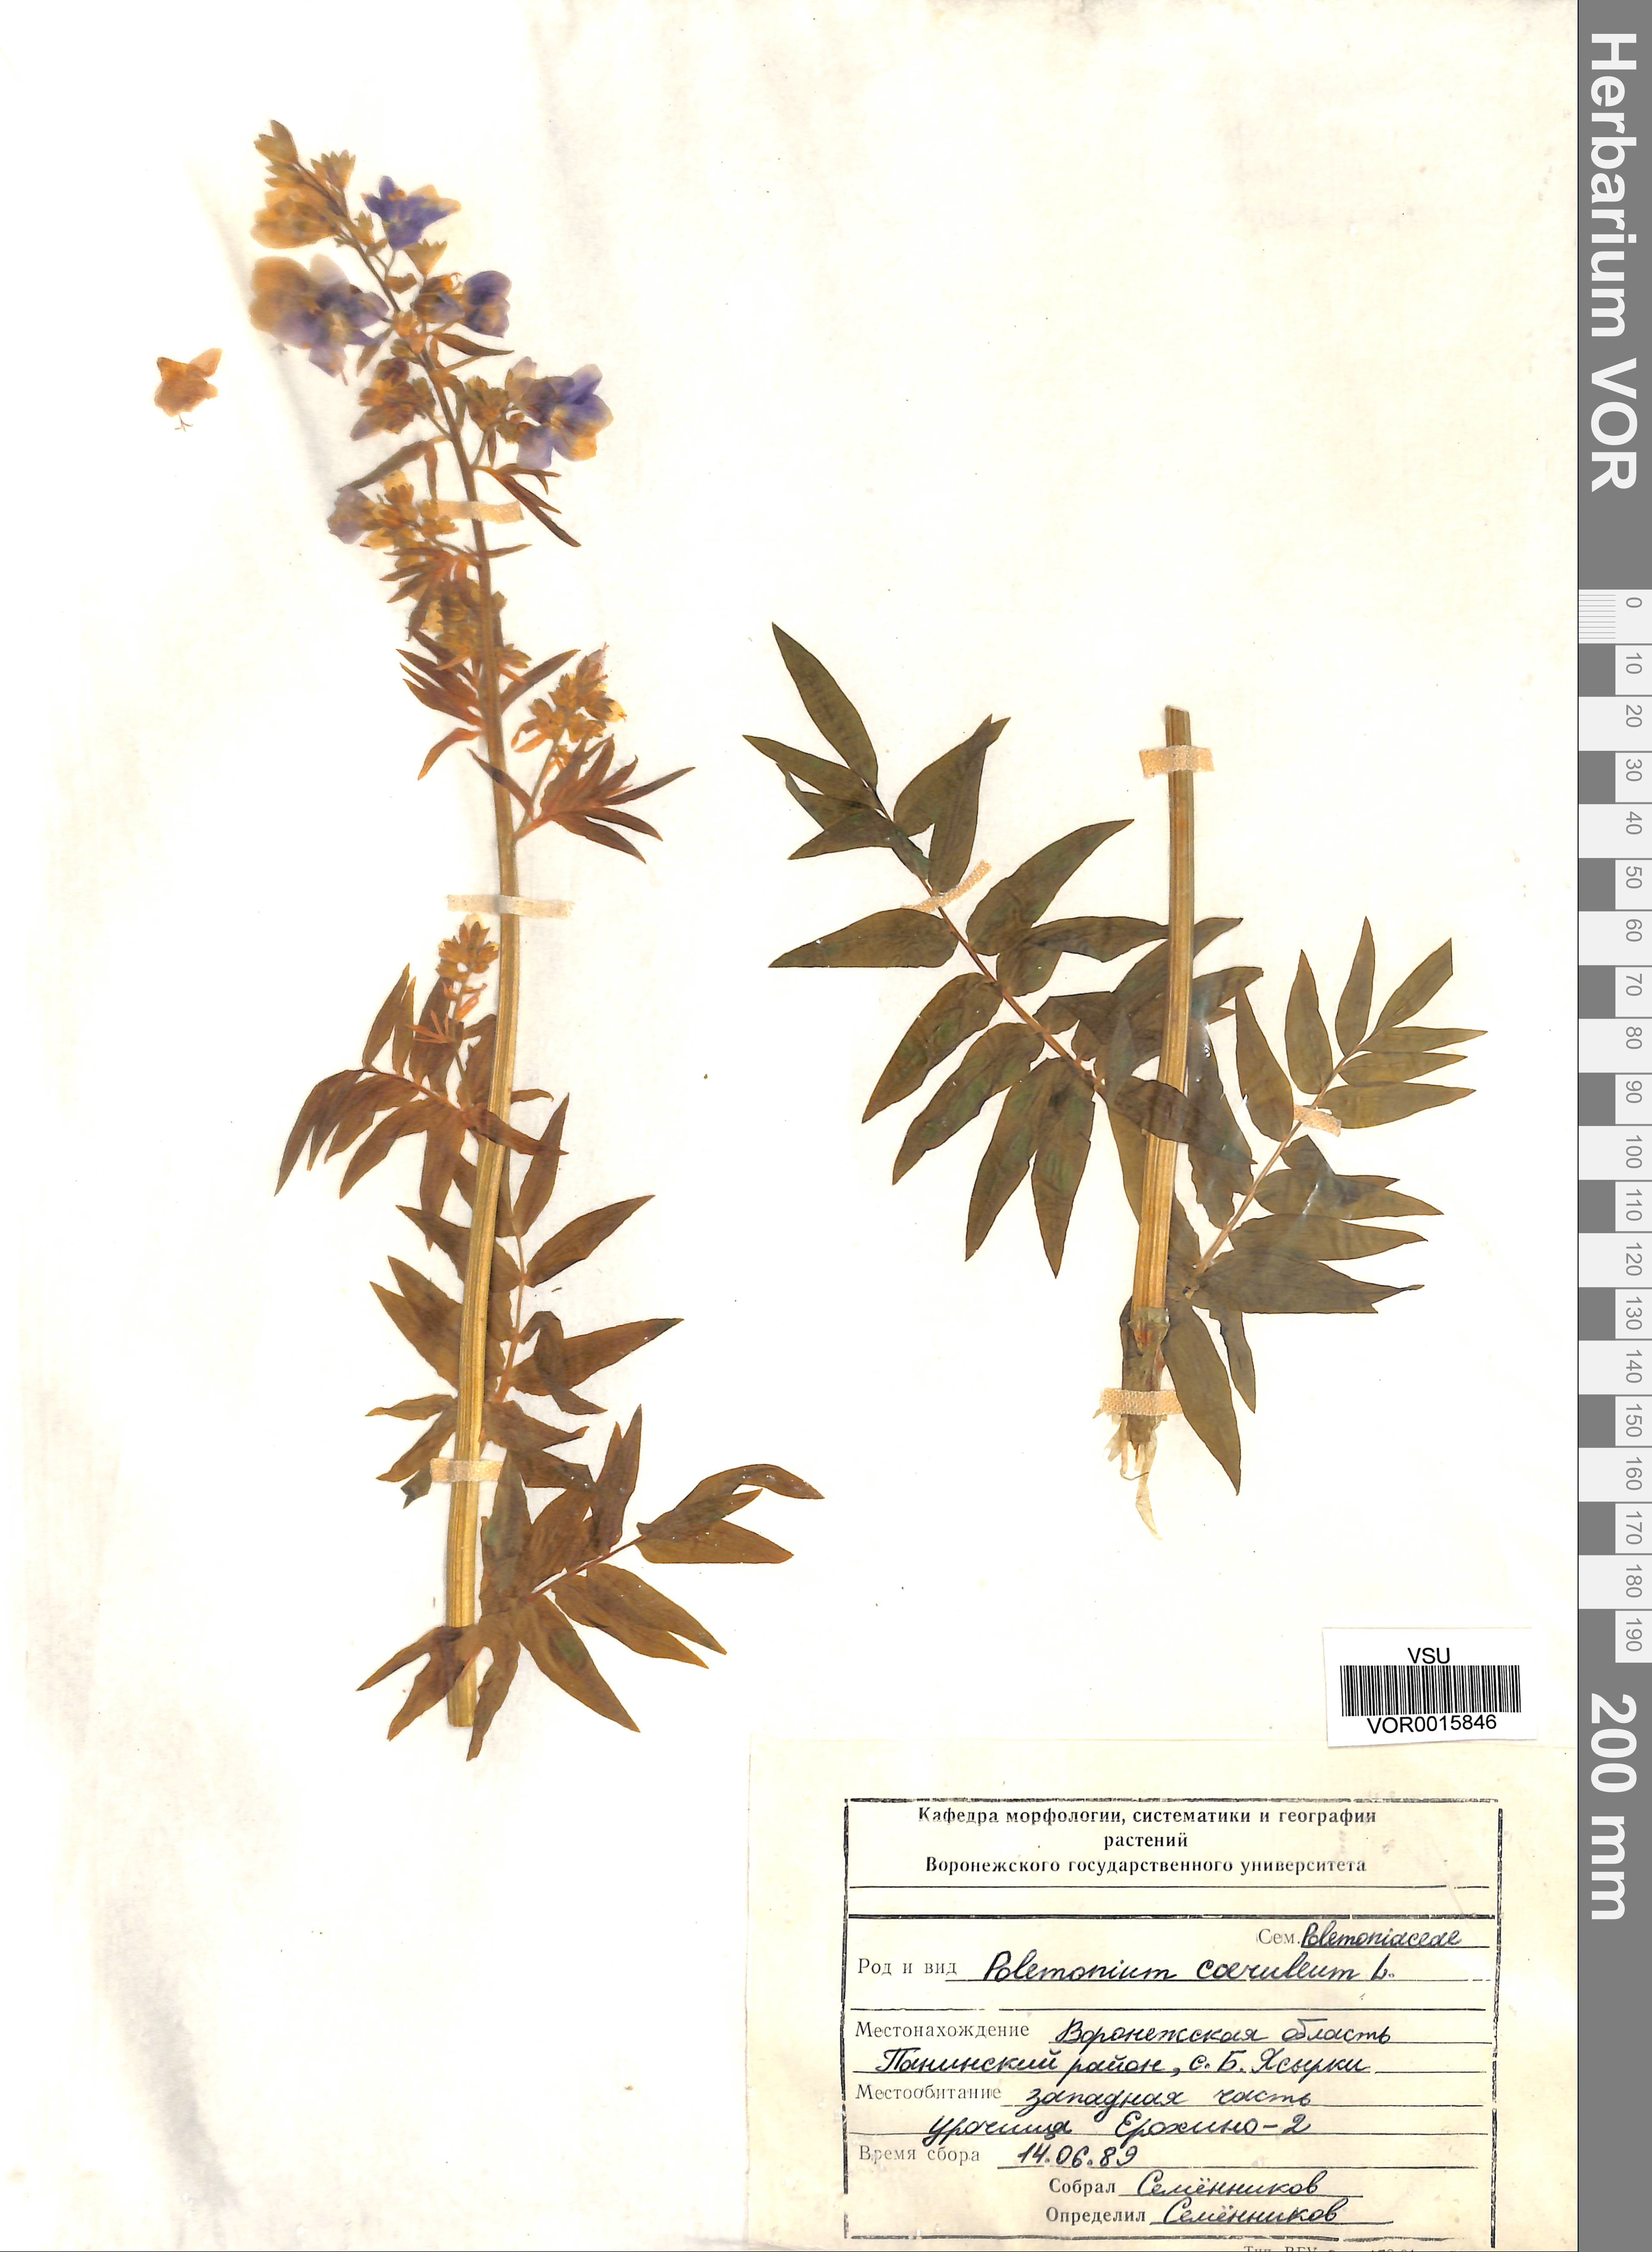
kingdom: Plantae
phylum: Tracheophyta
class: Magnoliopsida
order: Ericales
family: Polemoniaceae
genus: Polemonium
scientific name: Polemonium caeruleum
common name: Jacob's-ladder
